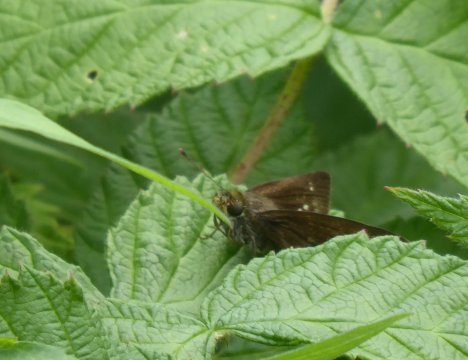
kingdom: Animalia
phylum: Arthropoda
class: Insecta
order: Lepidoptera
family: Hesperiidae
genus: Euphyes
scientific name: Euphyes vestris
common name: Dun Skipper
